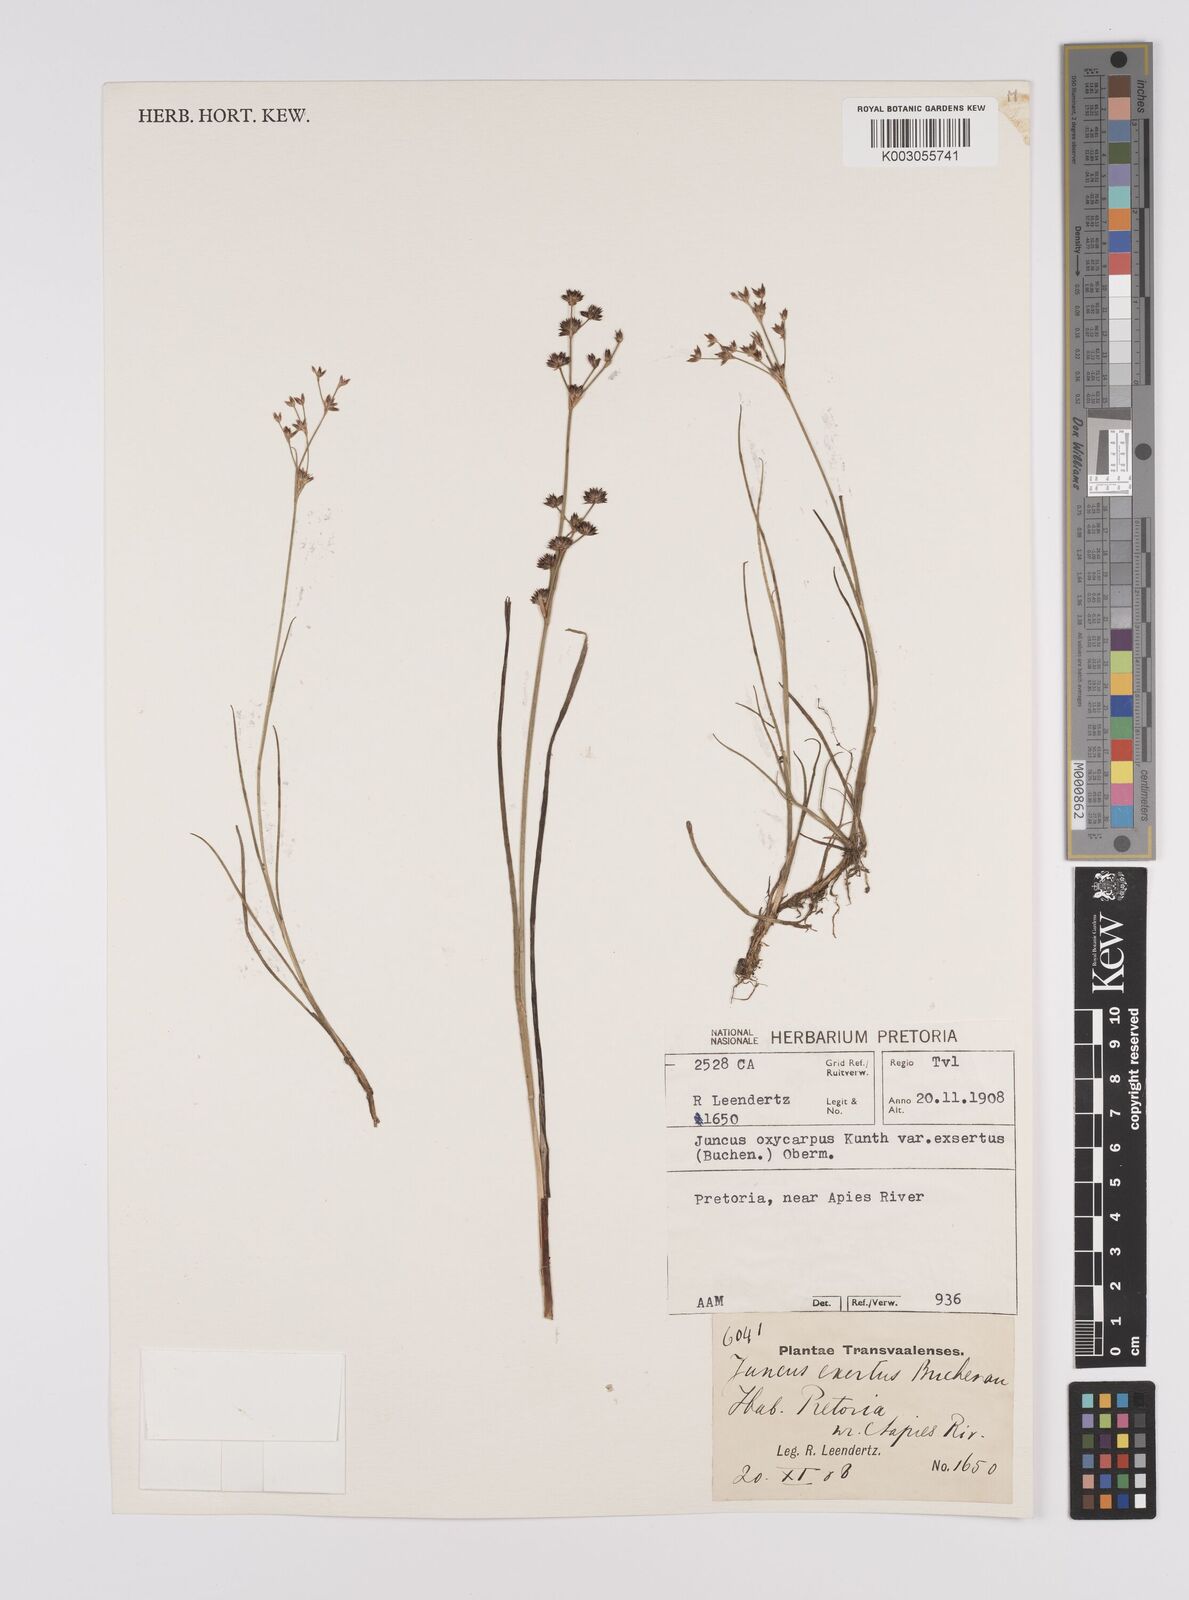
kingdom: Plantae
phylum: Tracheophyta
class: Liliopsida
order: Poales
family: Juncaceae
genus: Juncus
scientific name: Juncus exsertus
